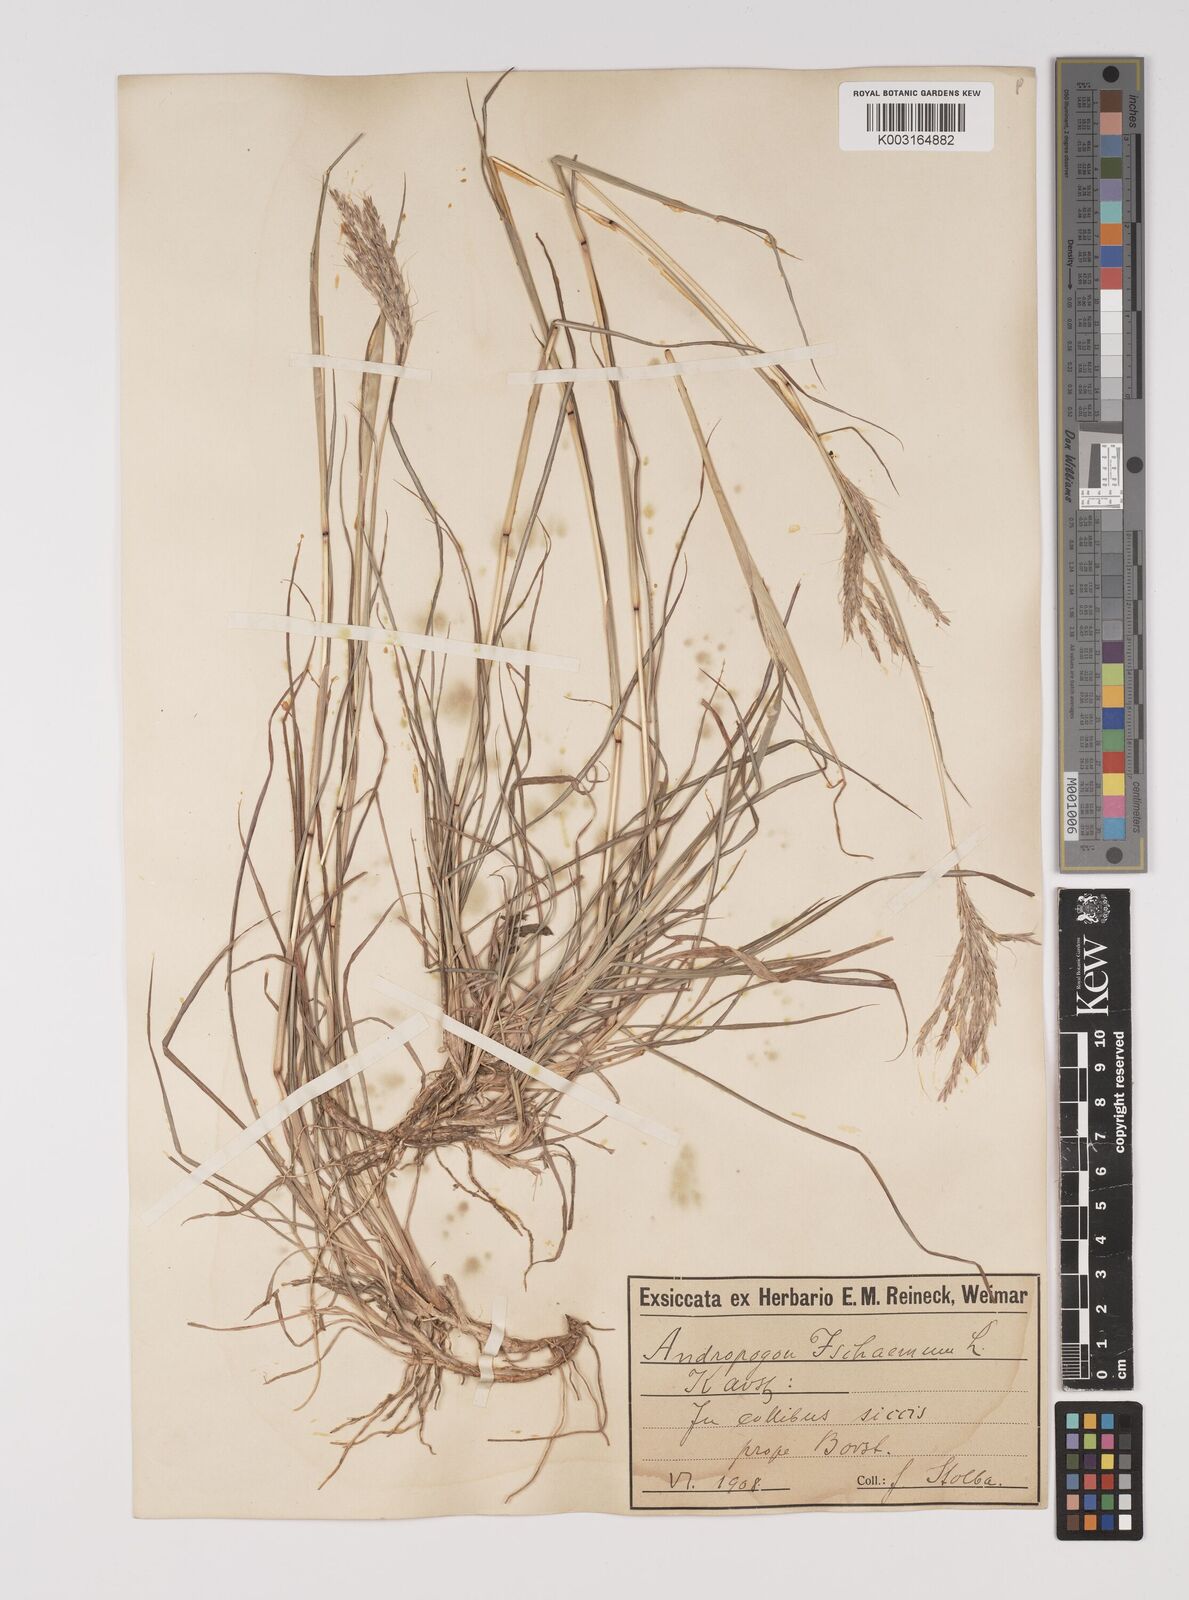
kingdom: Plantae
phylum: Tracheophyta
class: Liliopsida
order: Poales
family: Poaceae
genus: Bothriochloa
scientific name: Bothriochloa ischaemum
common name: Yellow bluestem
